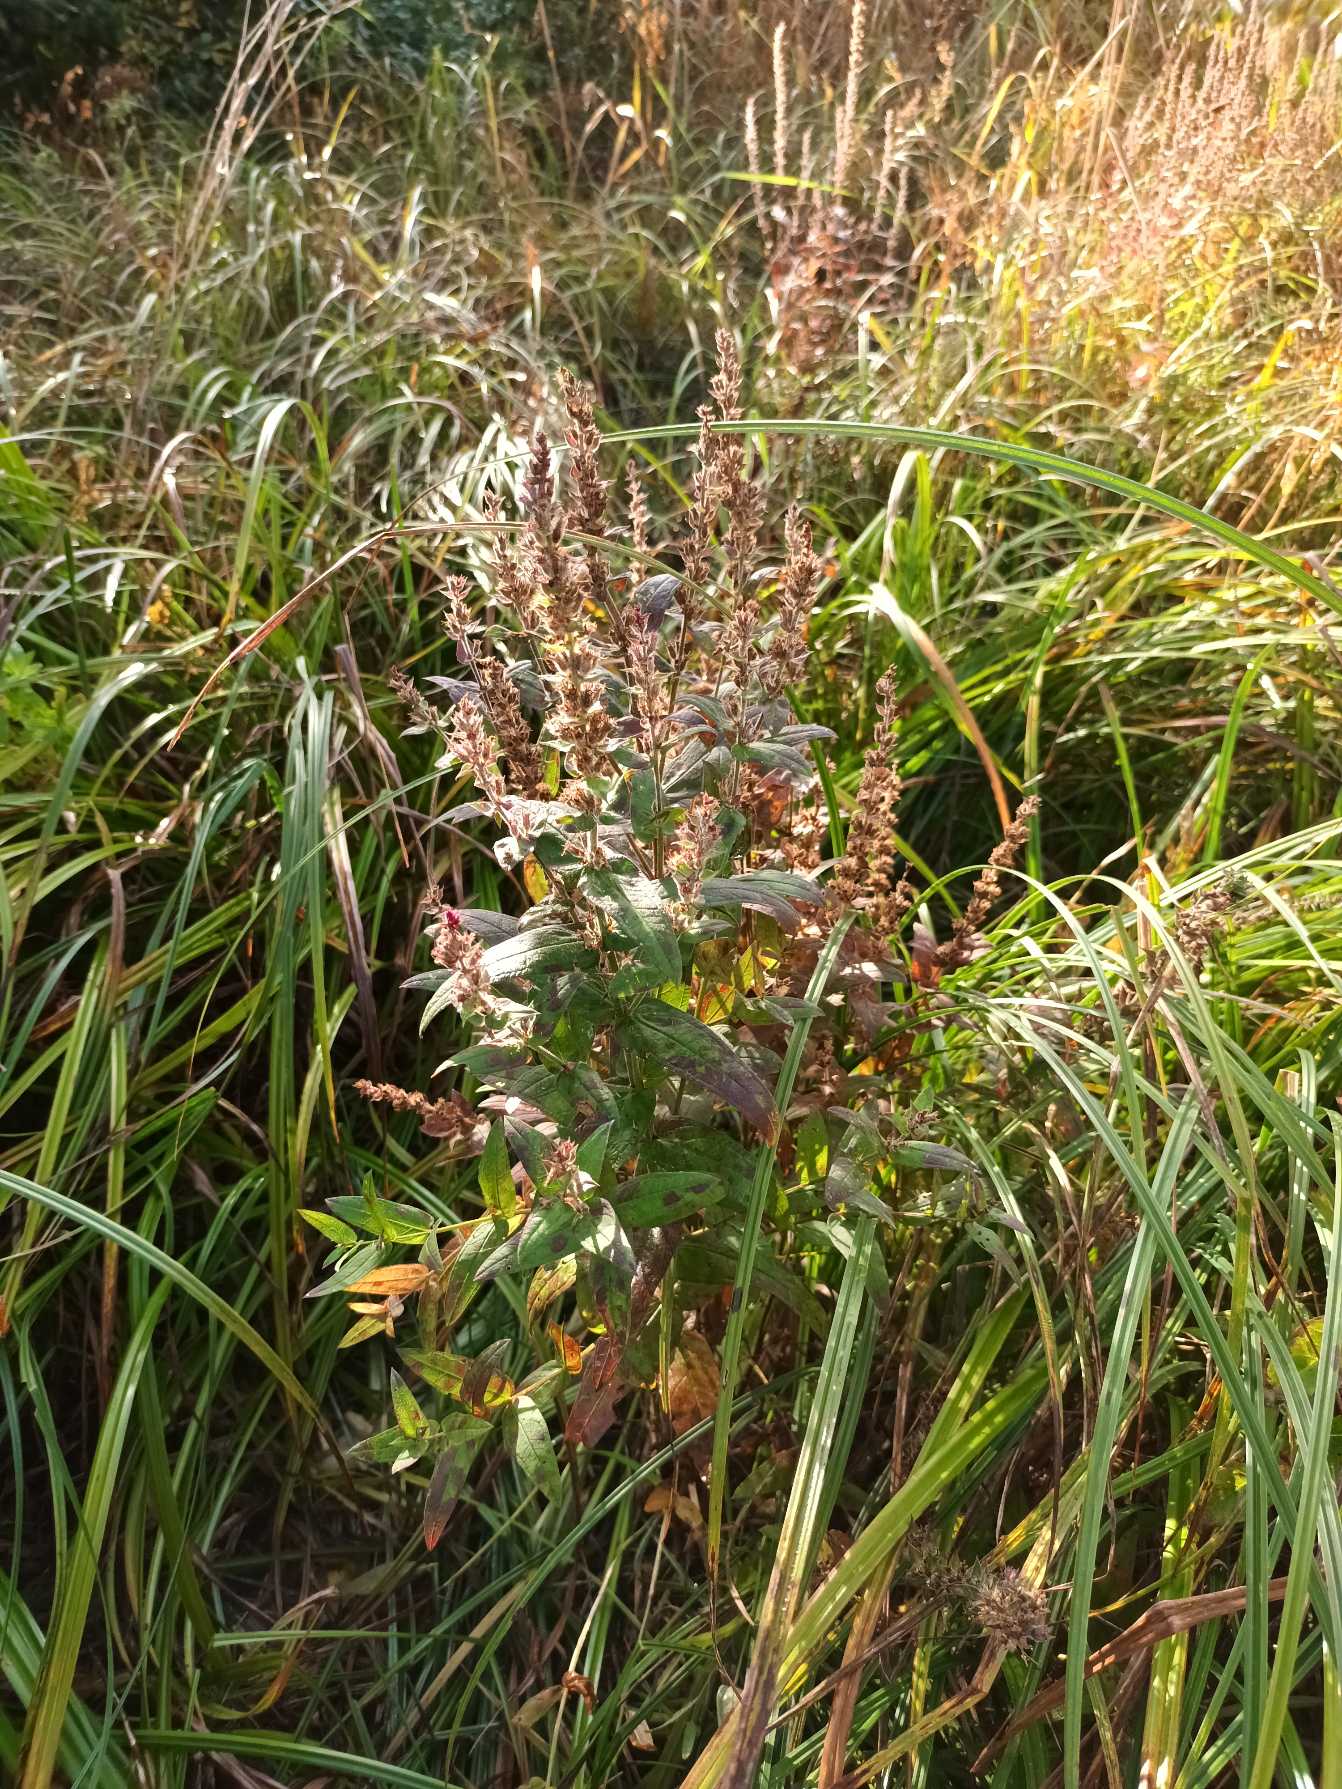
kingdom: Plantae
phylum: Tracheophyta
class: Magnoliopsida
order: Myrtales
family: Lythraceae
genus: Lythrum
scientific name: Lythrum salicaria
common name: Kattehale
